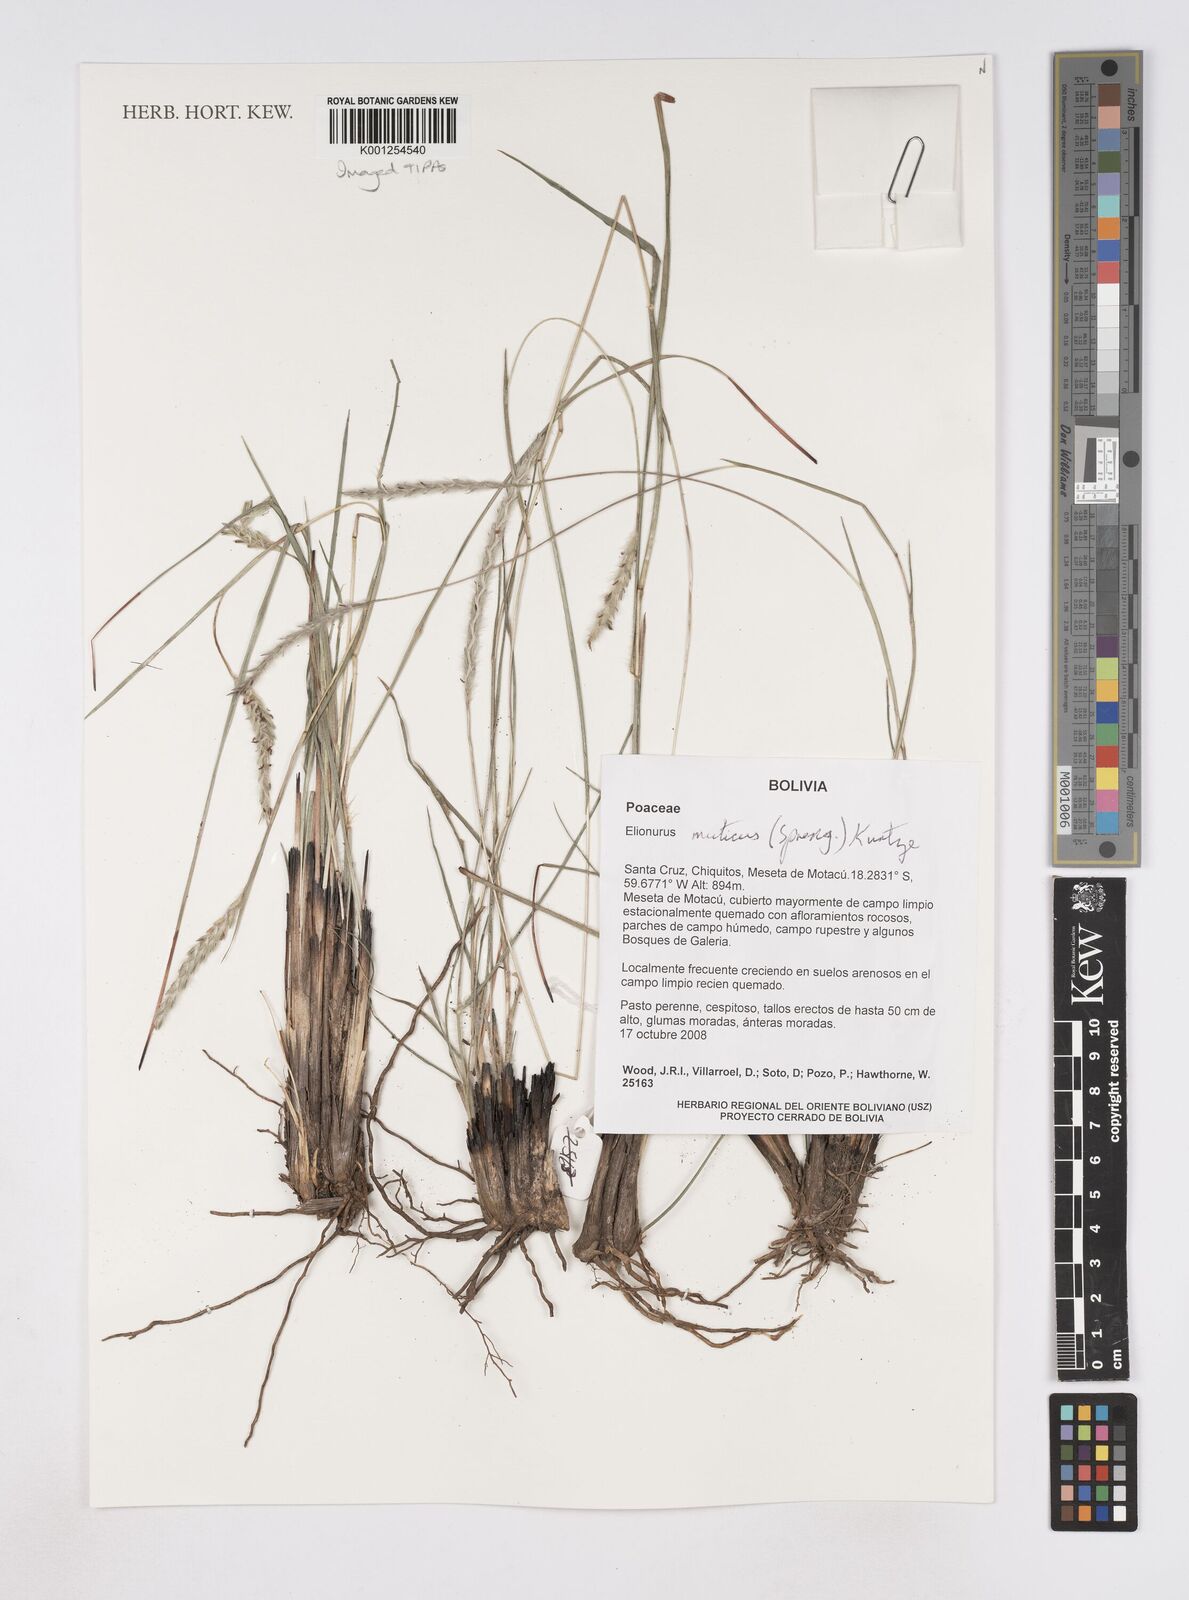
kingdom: Plantae
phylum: Tracheophyta
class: Liliopsida
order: Poales
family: Poaceae
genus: Elionurus
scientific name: Elionurus muticus
